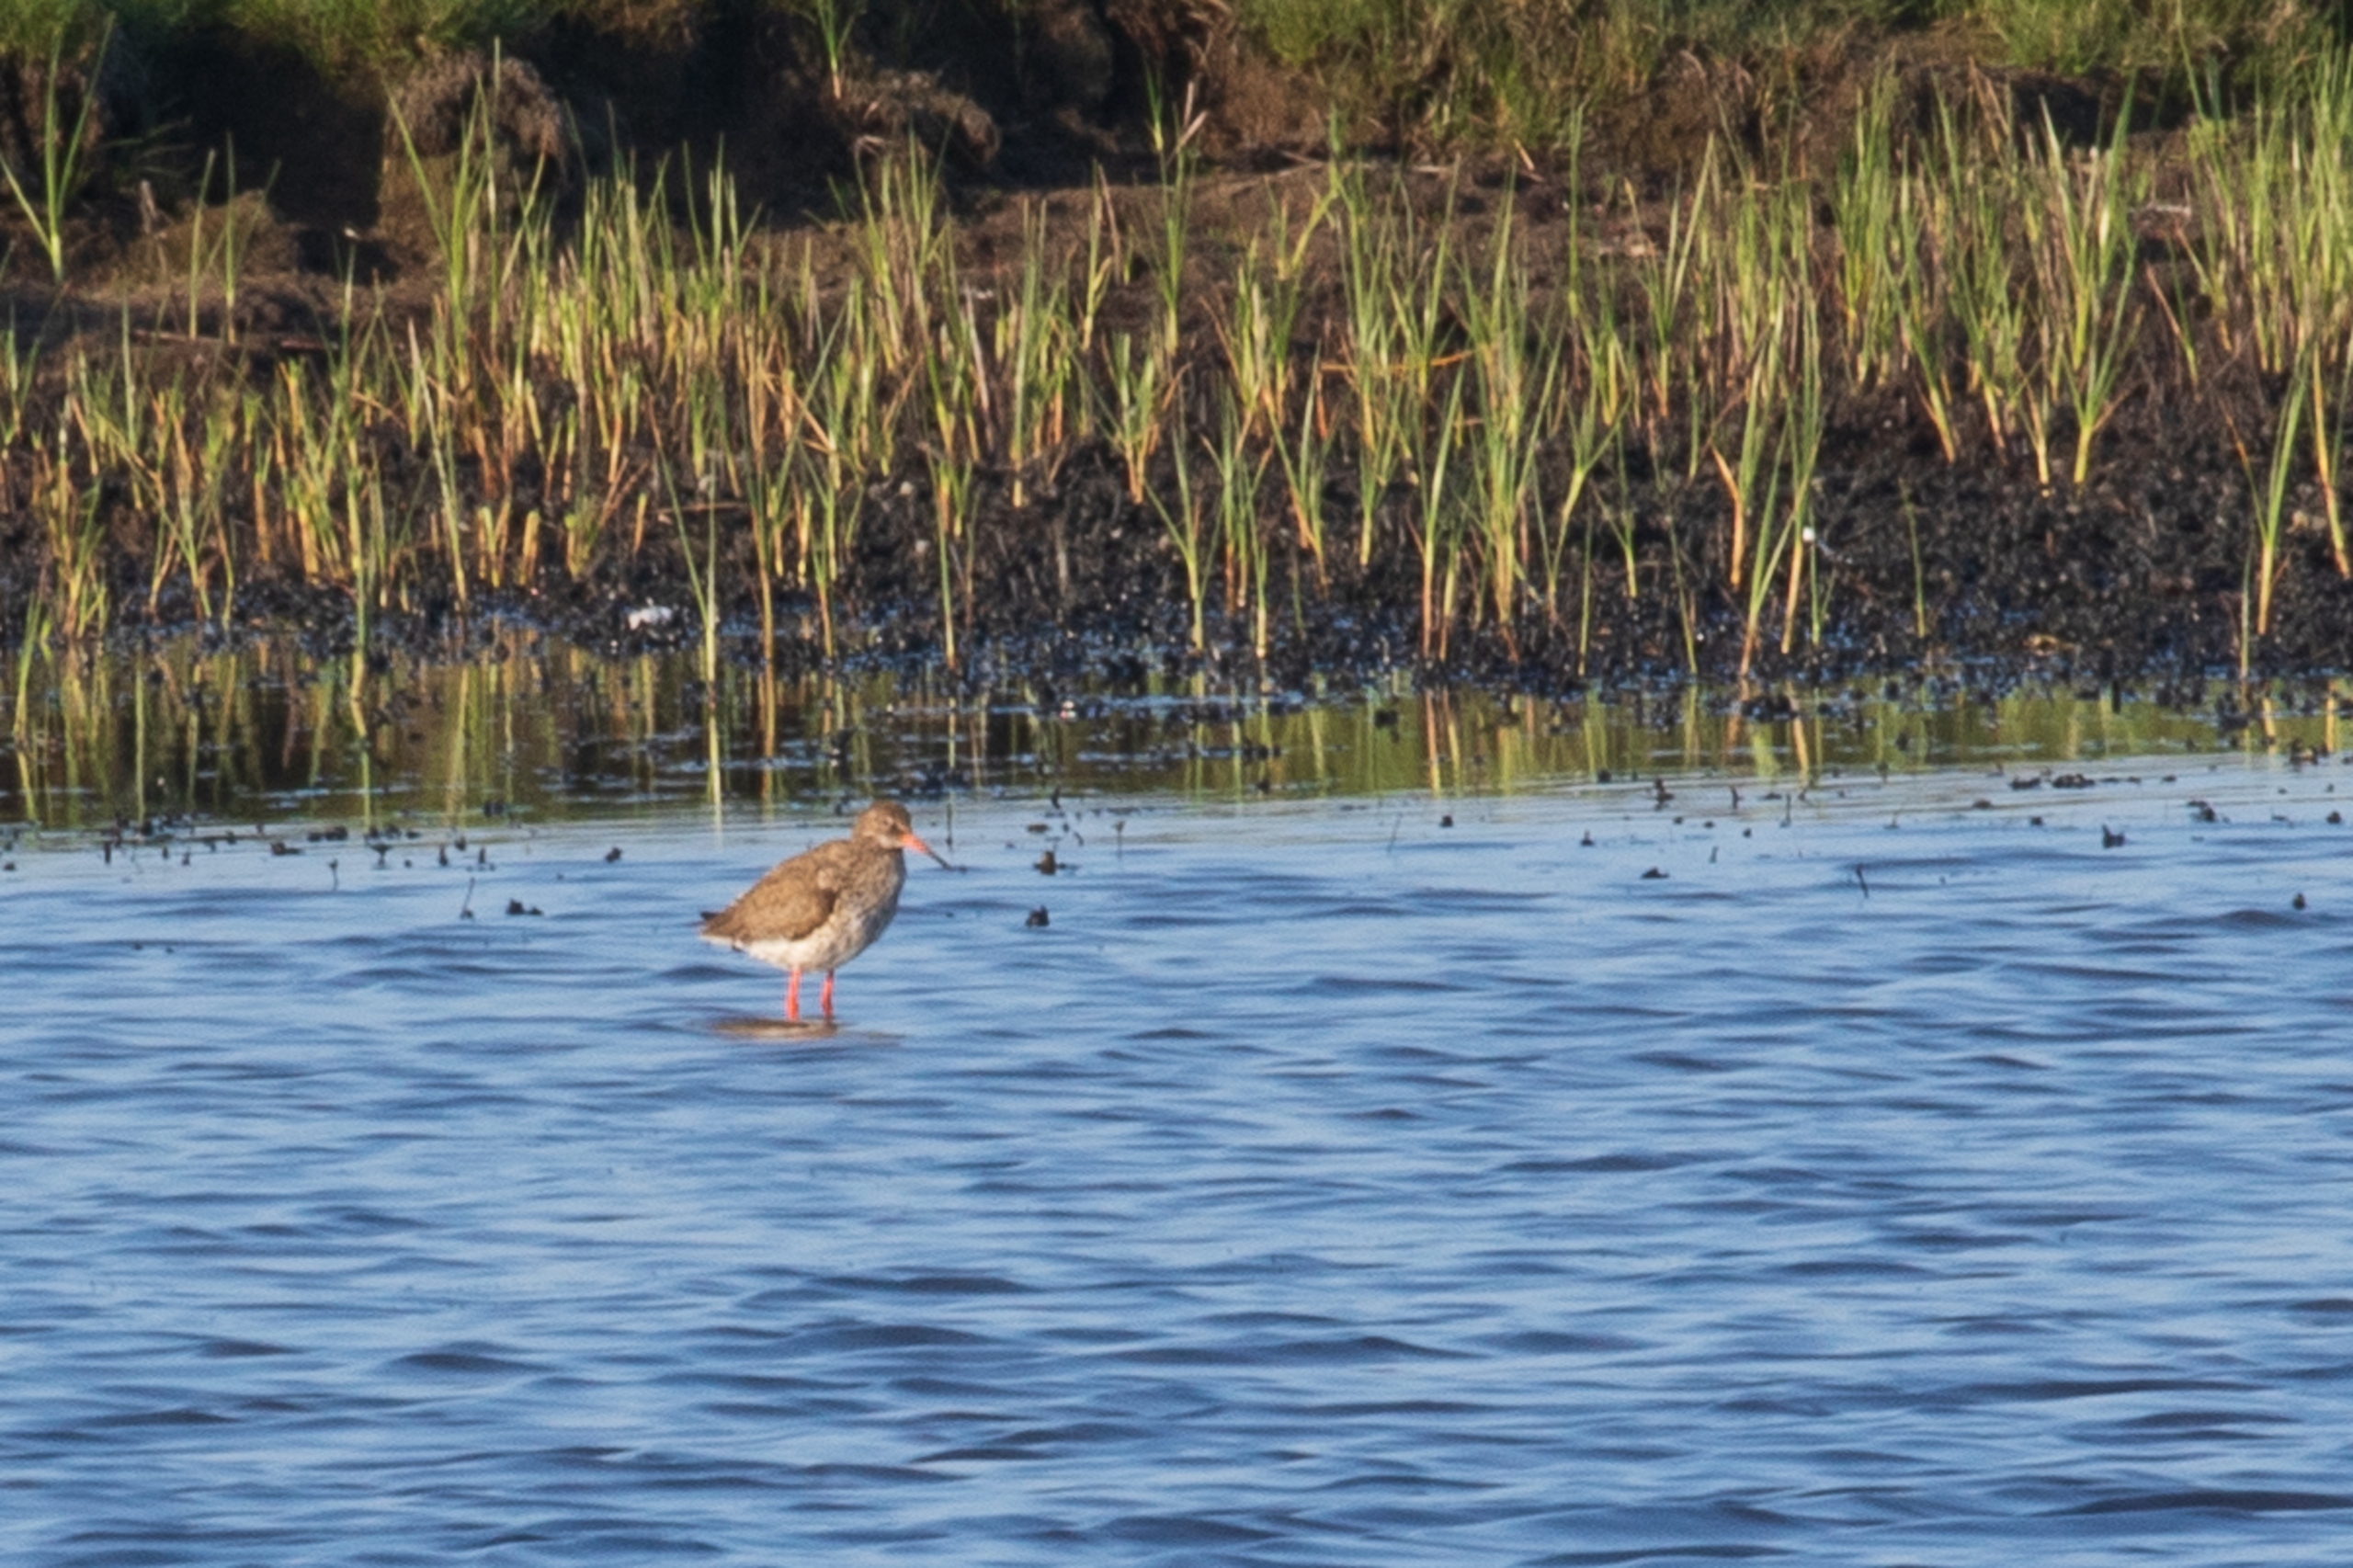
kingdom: Animalia
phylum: Chordata
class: Aves
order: Charadriiformes
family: Scolopacidae
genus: Tringa
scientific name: Tringa totanus
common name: Rødben
